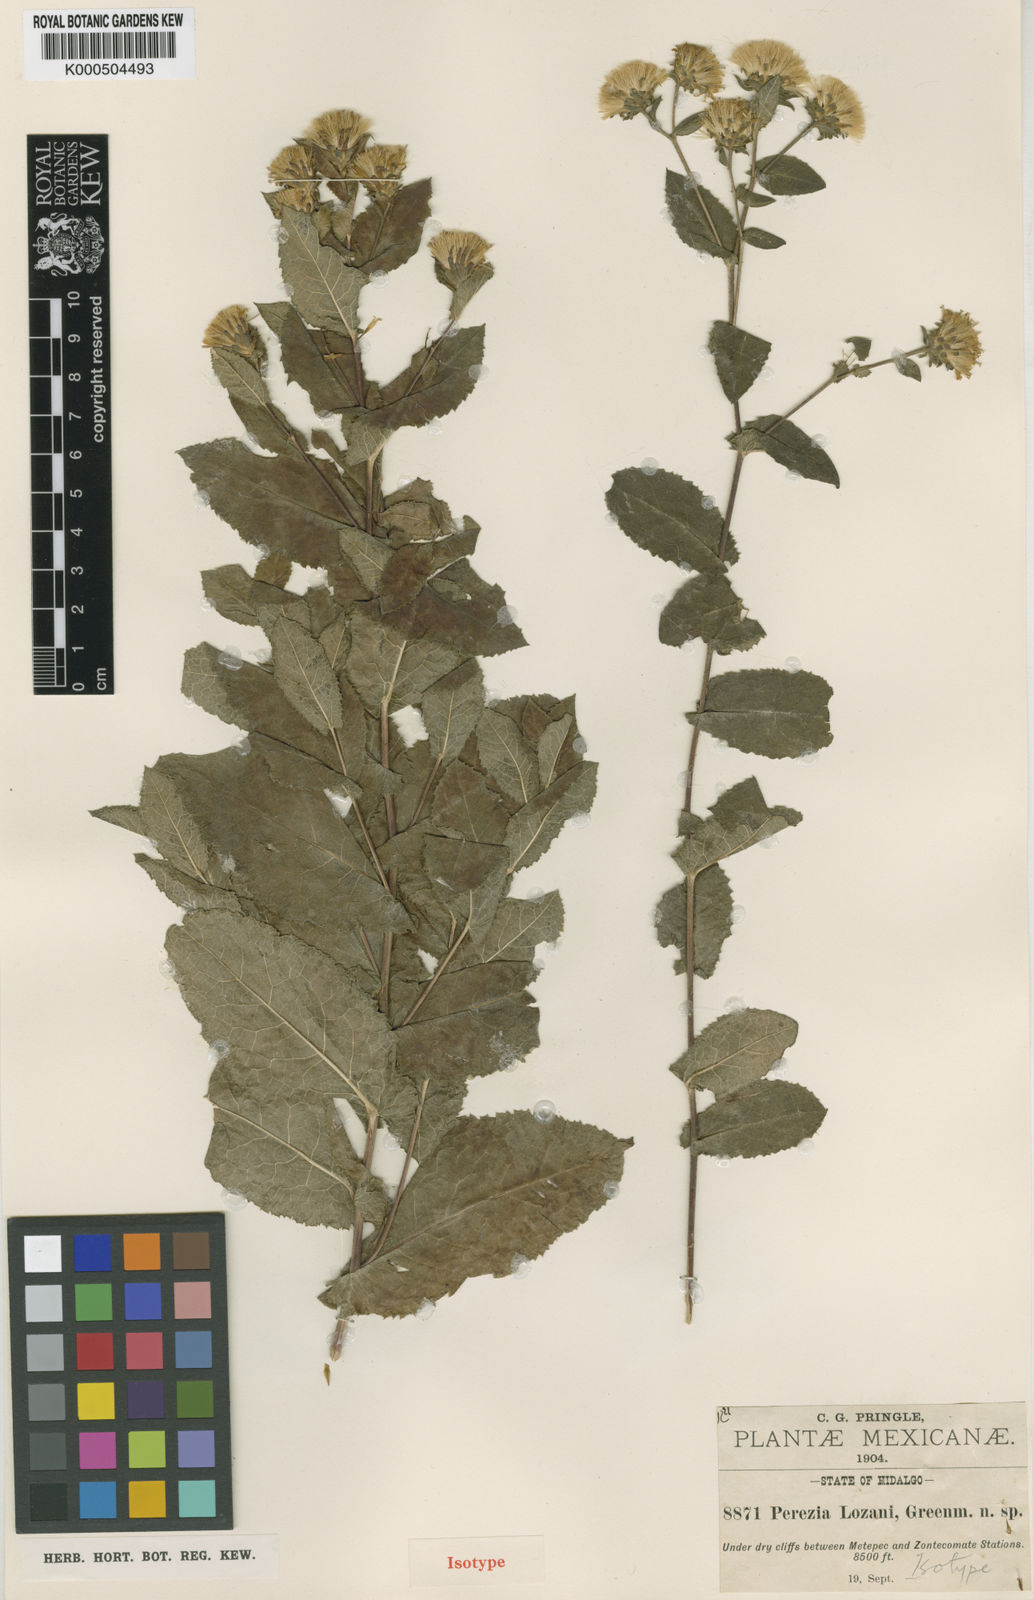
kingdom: Plantae
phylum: Tracheophyta
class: Magnoliopsida
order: Asterales
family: Asteraceae
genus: Acourtia
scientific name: Acourtia
